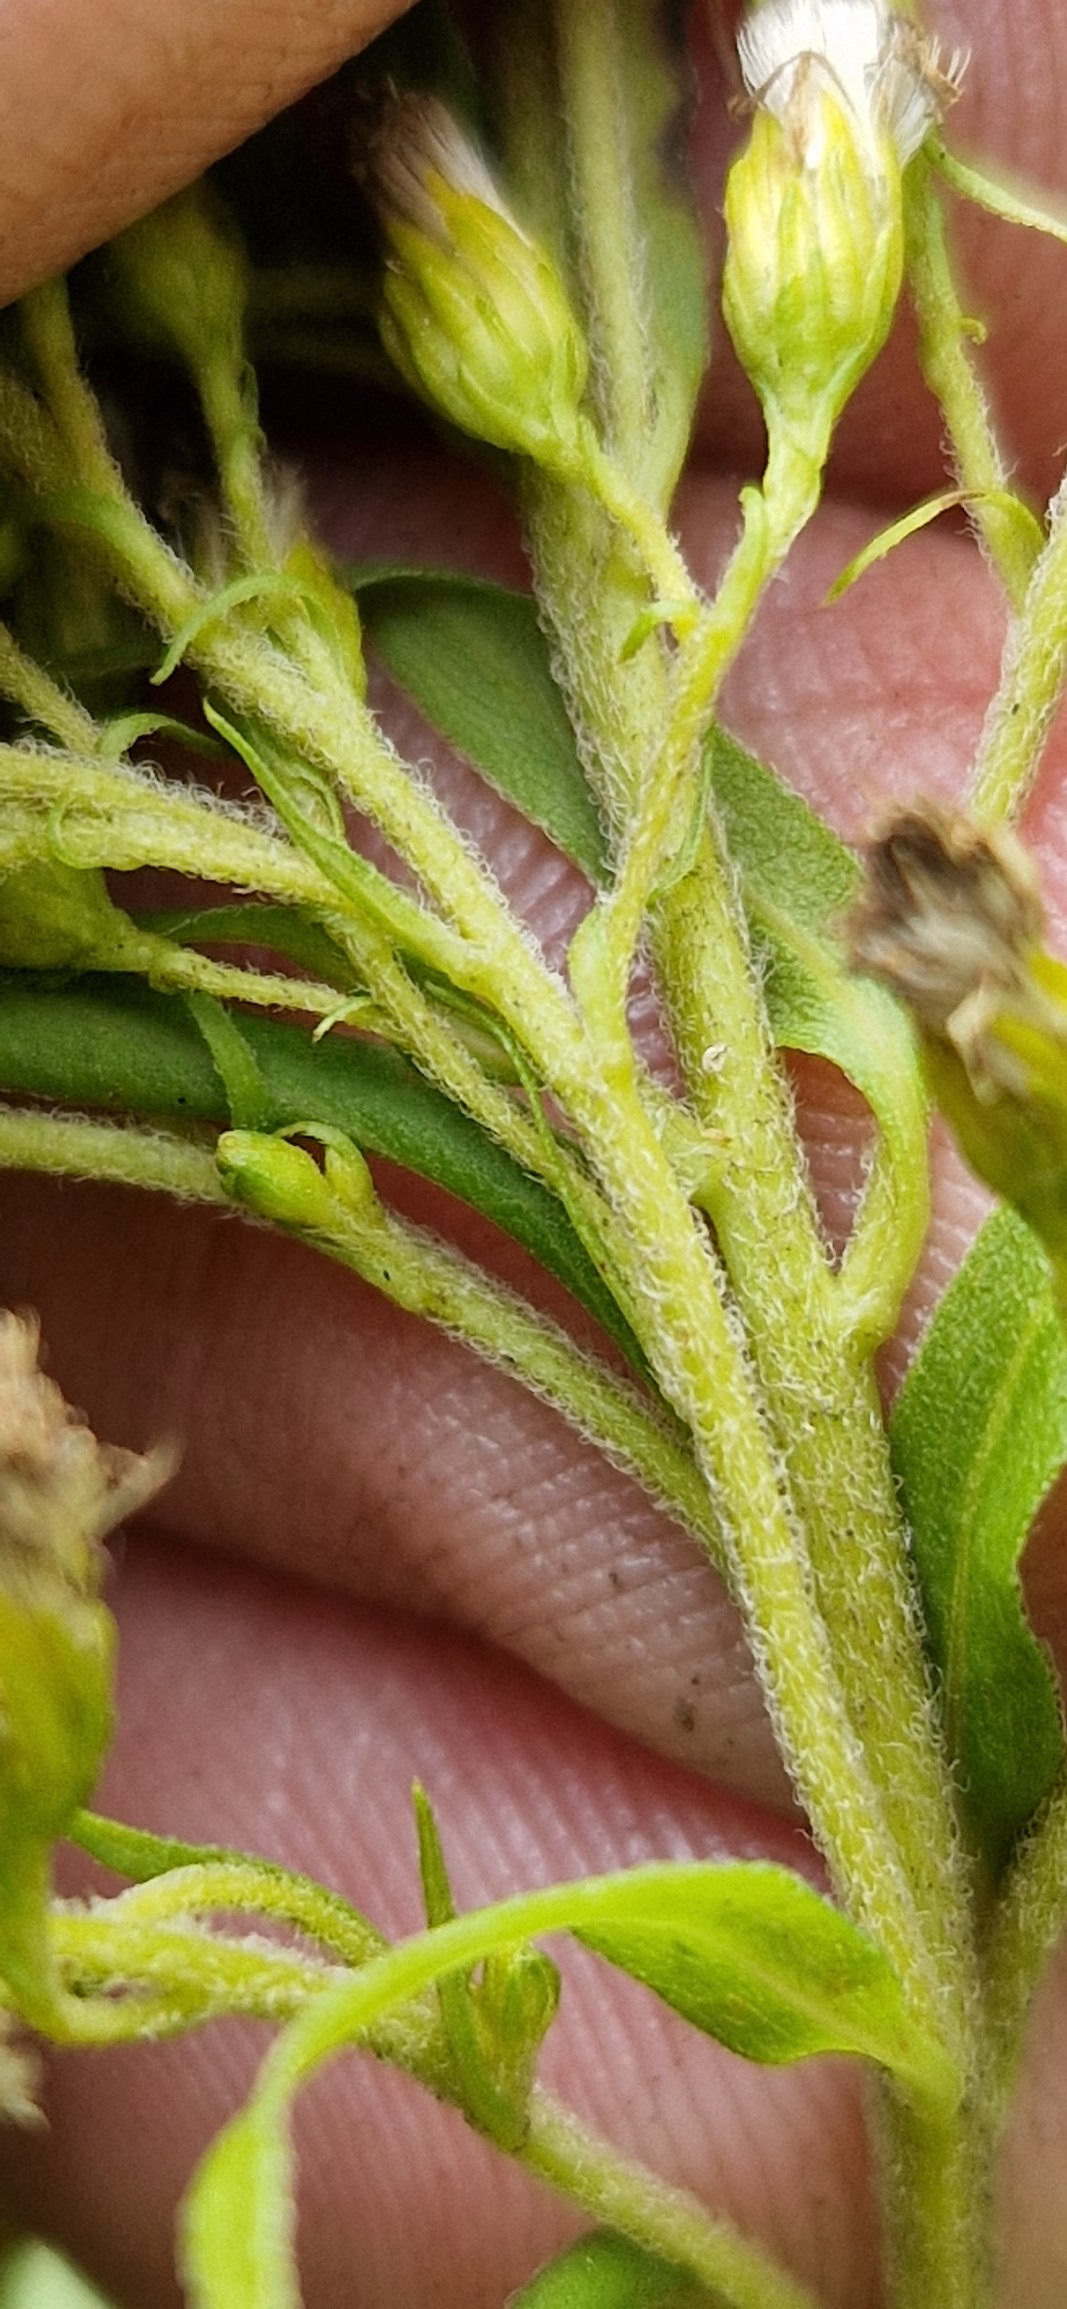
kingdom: Plantae
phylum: Tracheophyta
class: Magnoliopsida
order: Asterales
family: Asteraceae
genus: Solidago
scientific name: Solidago canadensis
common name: Kanadisk gyldenris
